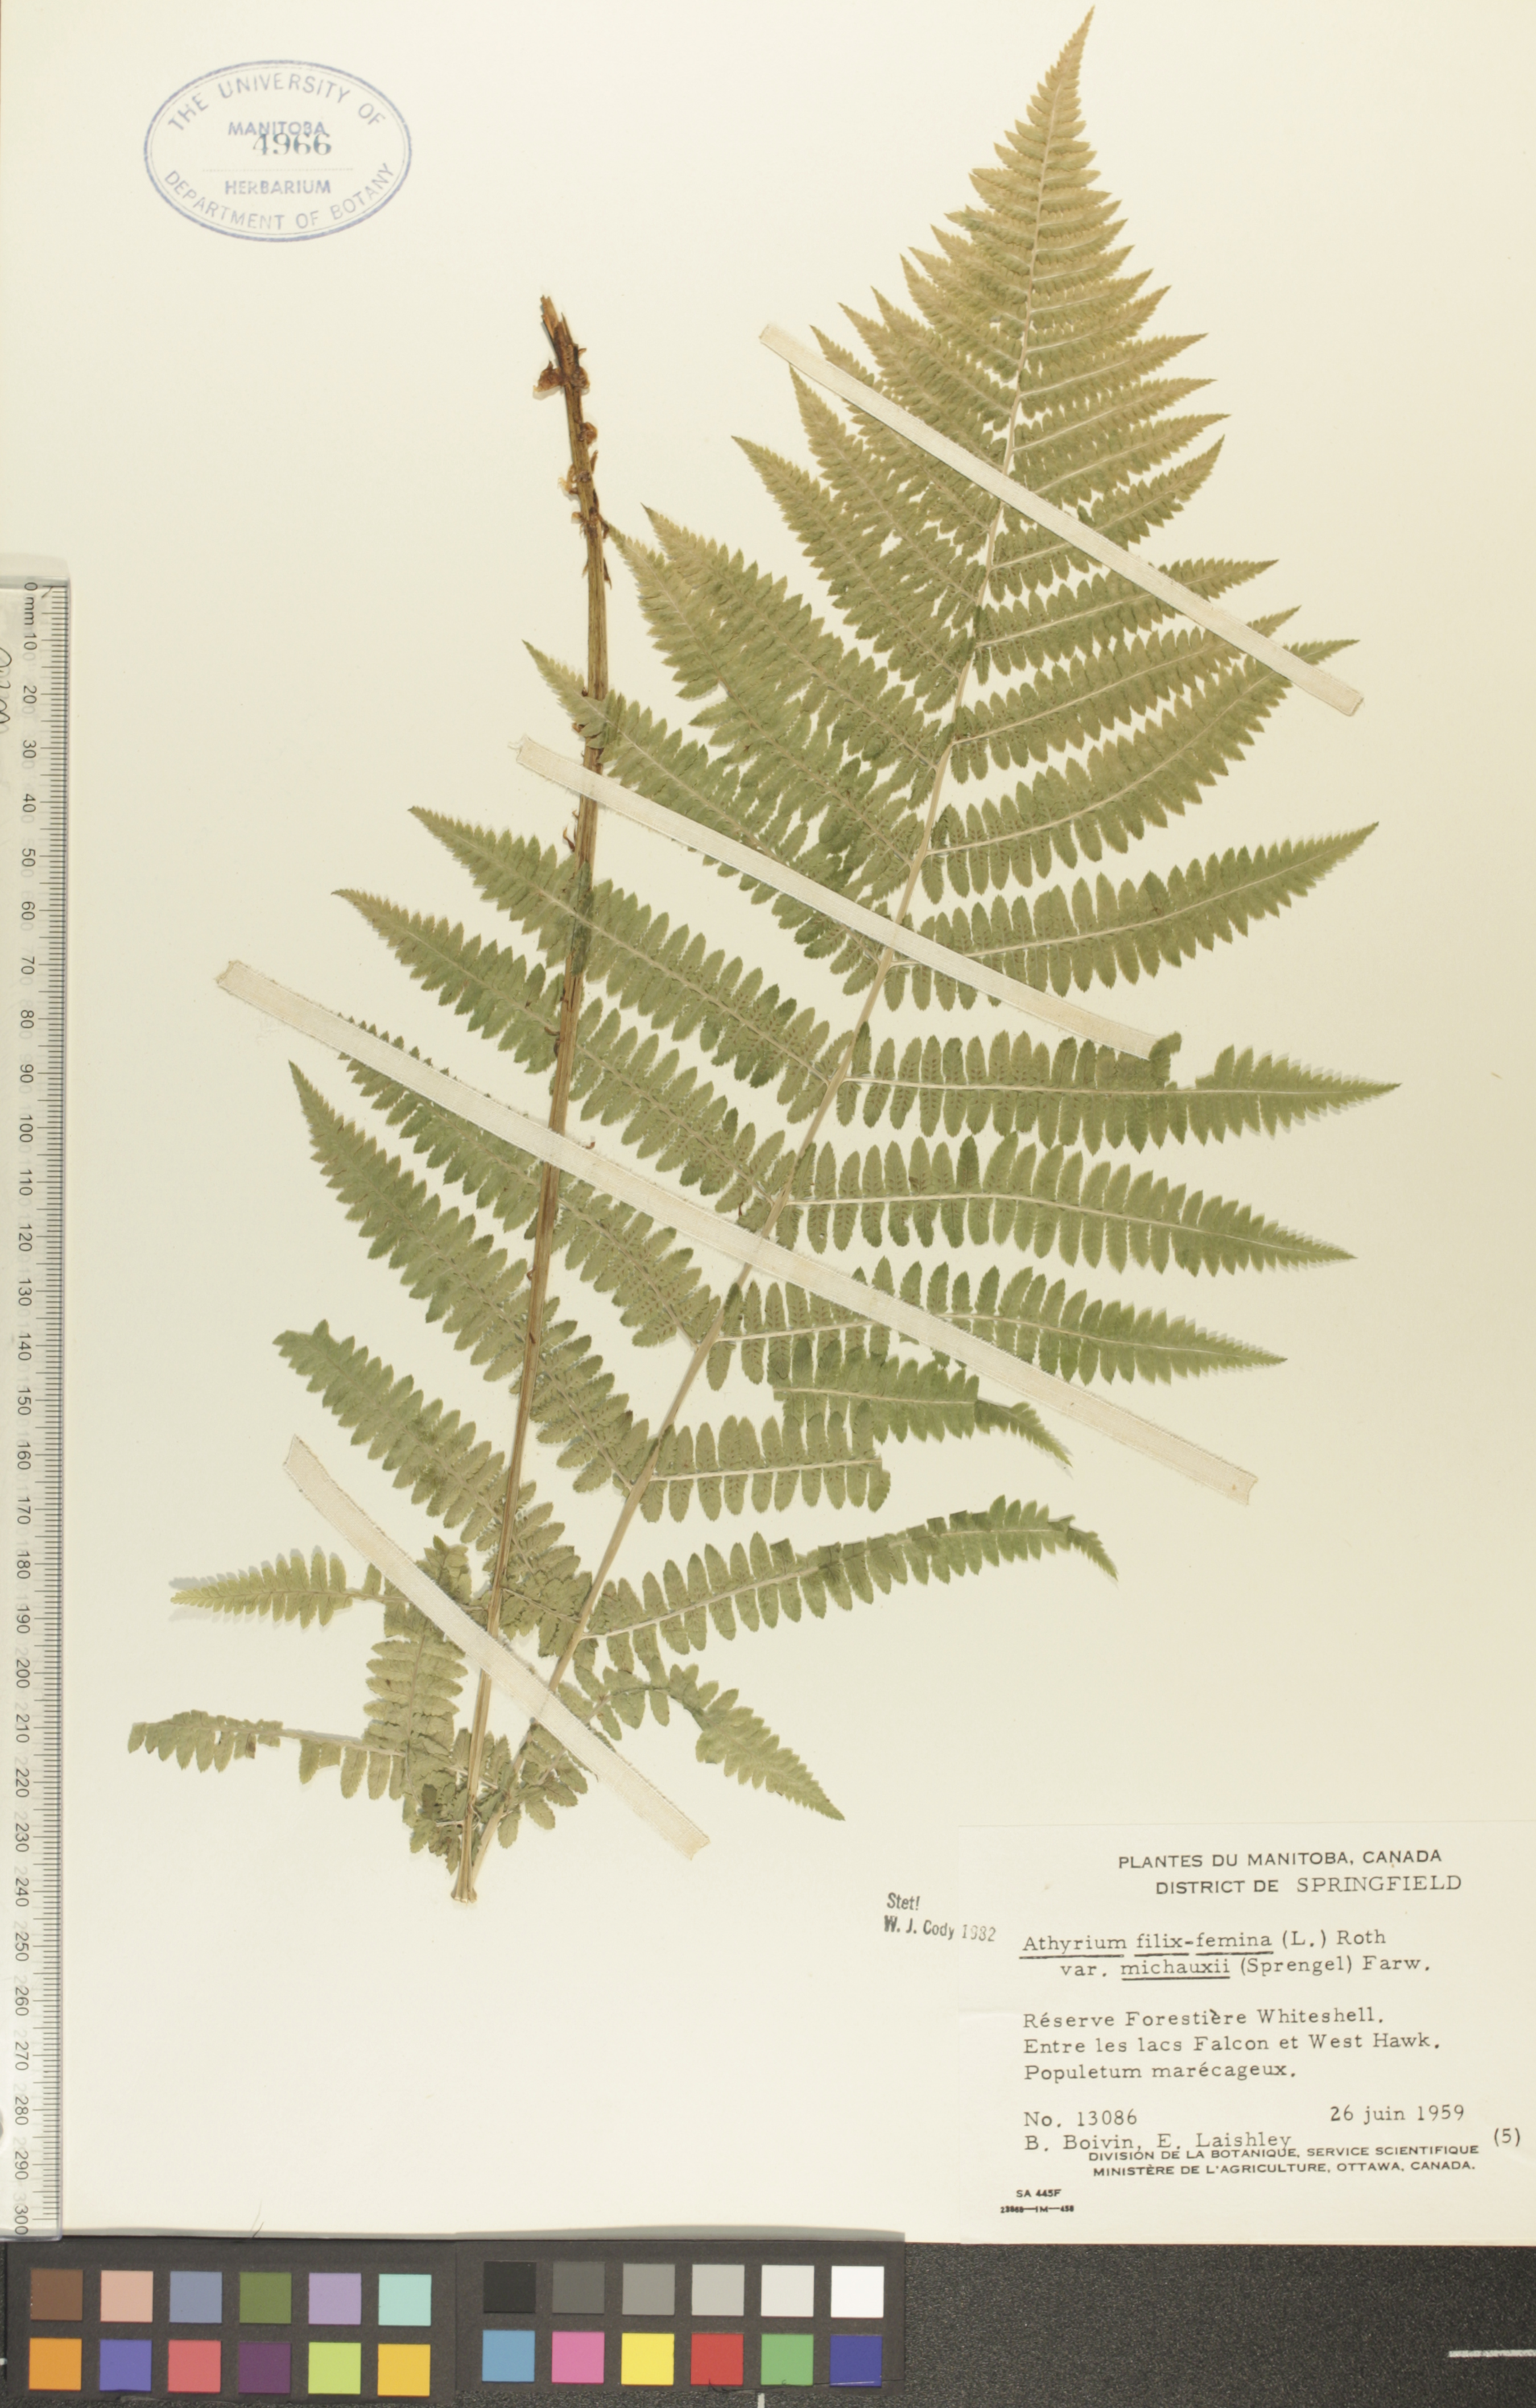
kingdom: Plantae
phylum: Tracheophyta
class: Polypodiopsida
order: Polypodiales
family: Athyriaceae
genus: Athyrium
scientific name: Athyrium angustum
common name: Northern lady fern
